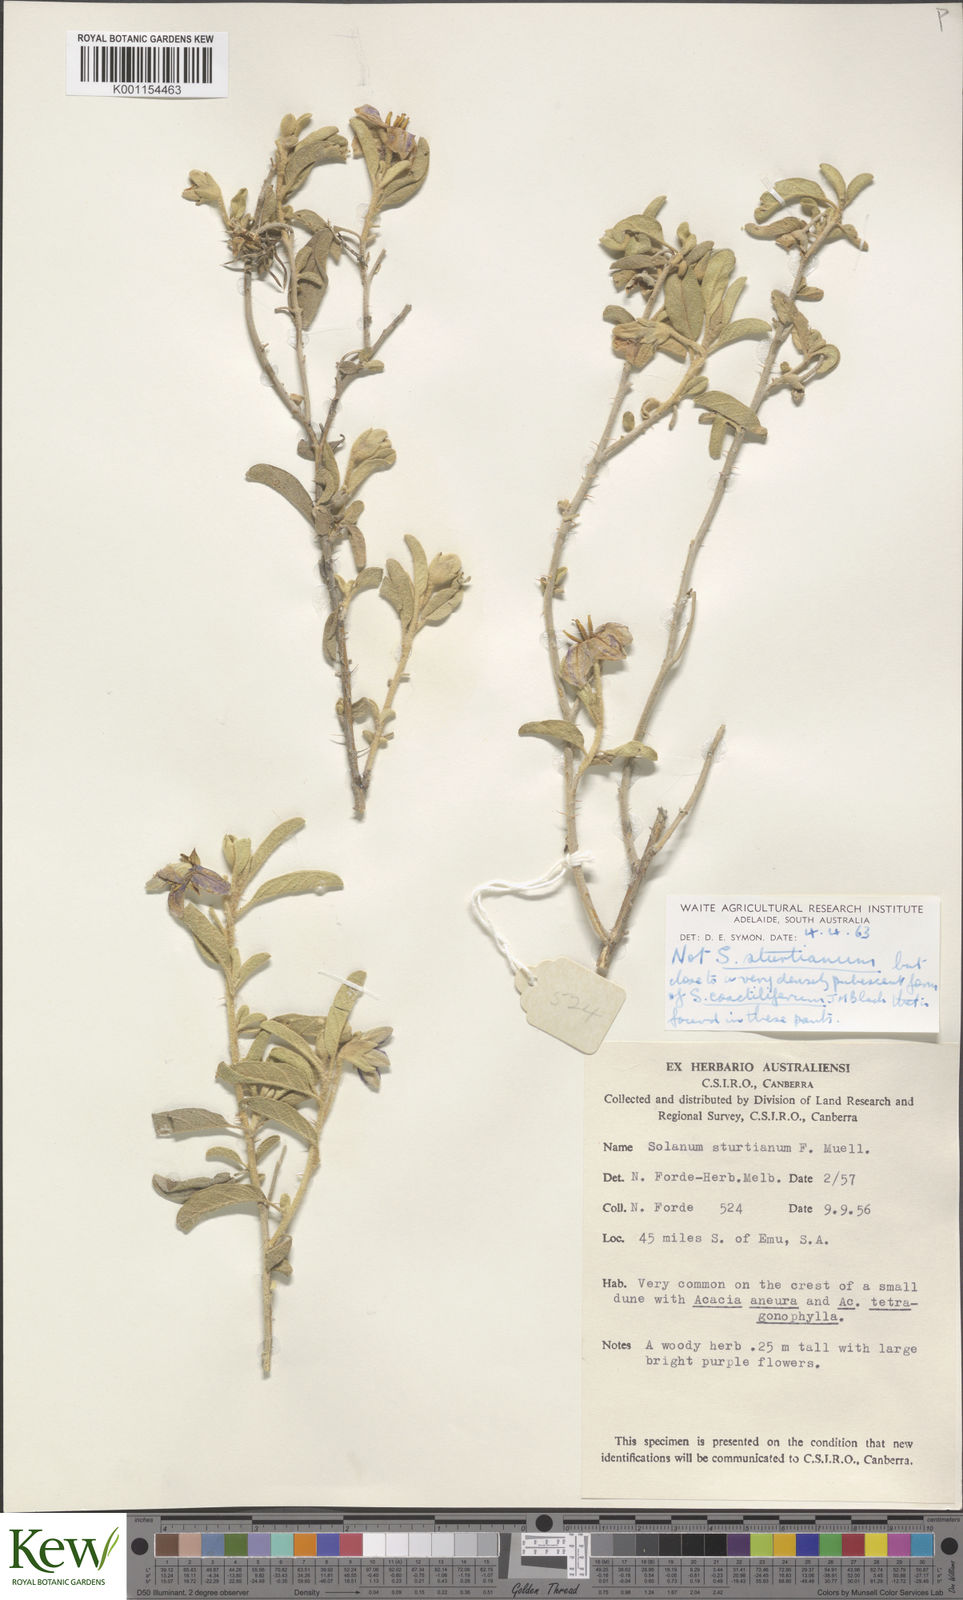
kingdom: Plantae
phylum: Tracheophyta
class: Magnoliopsida
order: Solanales
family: Solanaceae
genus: Solanum
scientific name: Solanum coactiliferum
